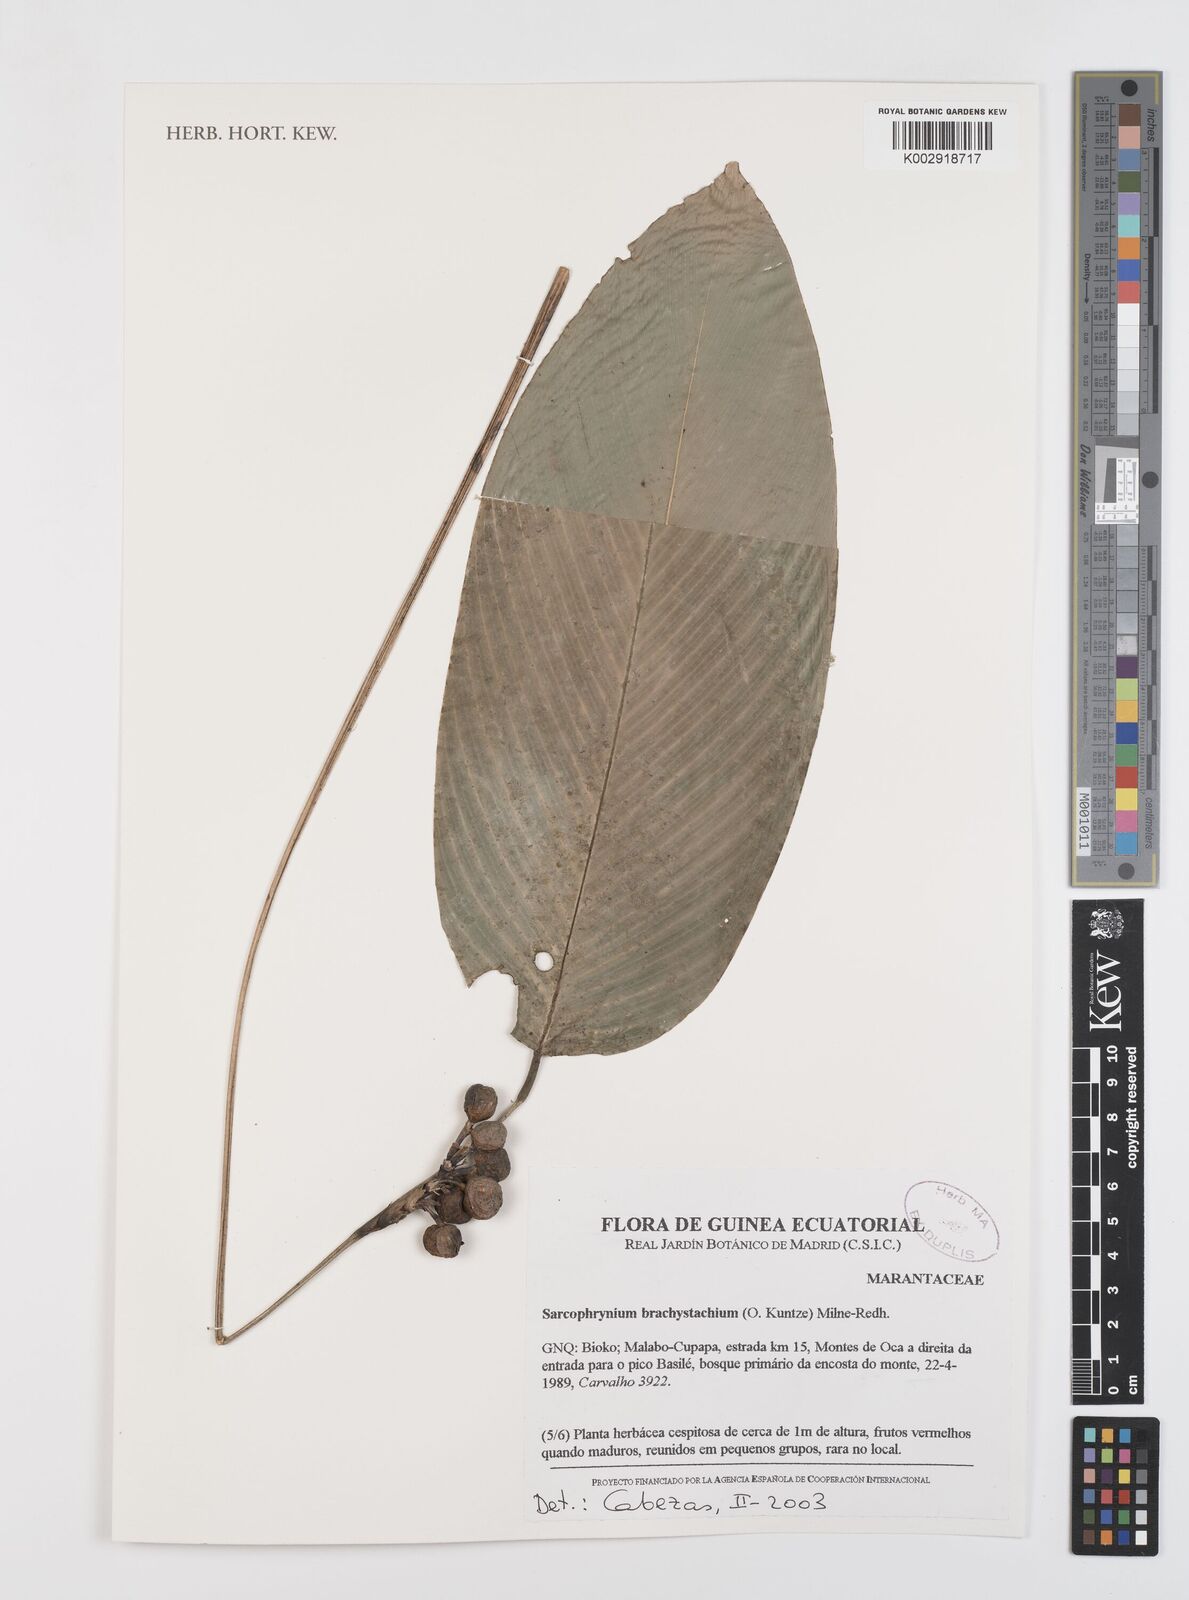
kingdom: Plantae
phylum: Tracheophyta
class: Liliopsida
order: Zingiberales
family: Marantaceae
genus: Sarcophrynium
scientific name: Sarcophrynium brachystachyum
